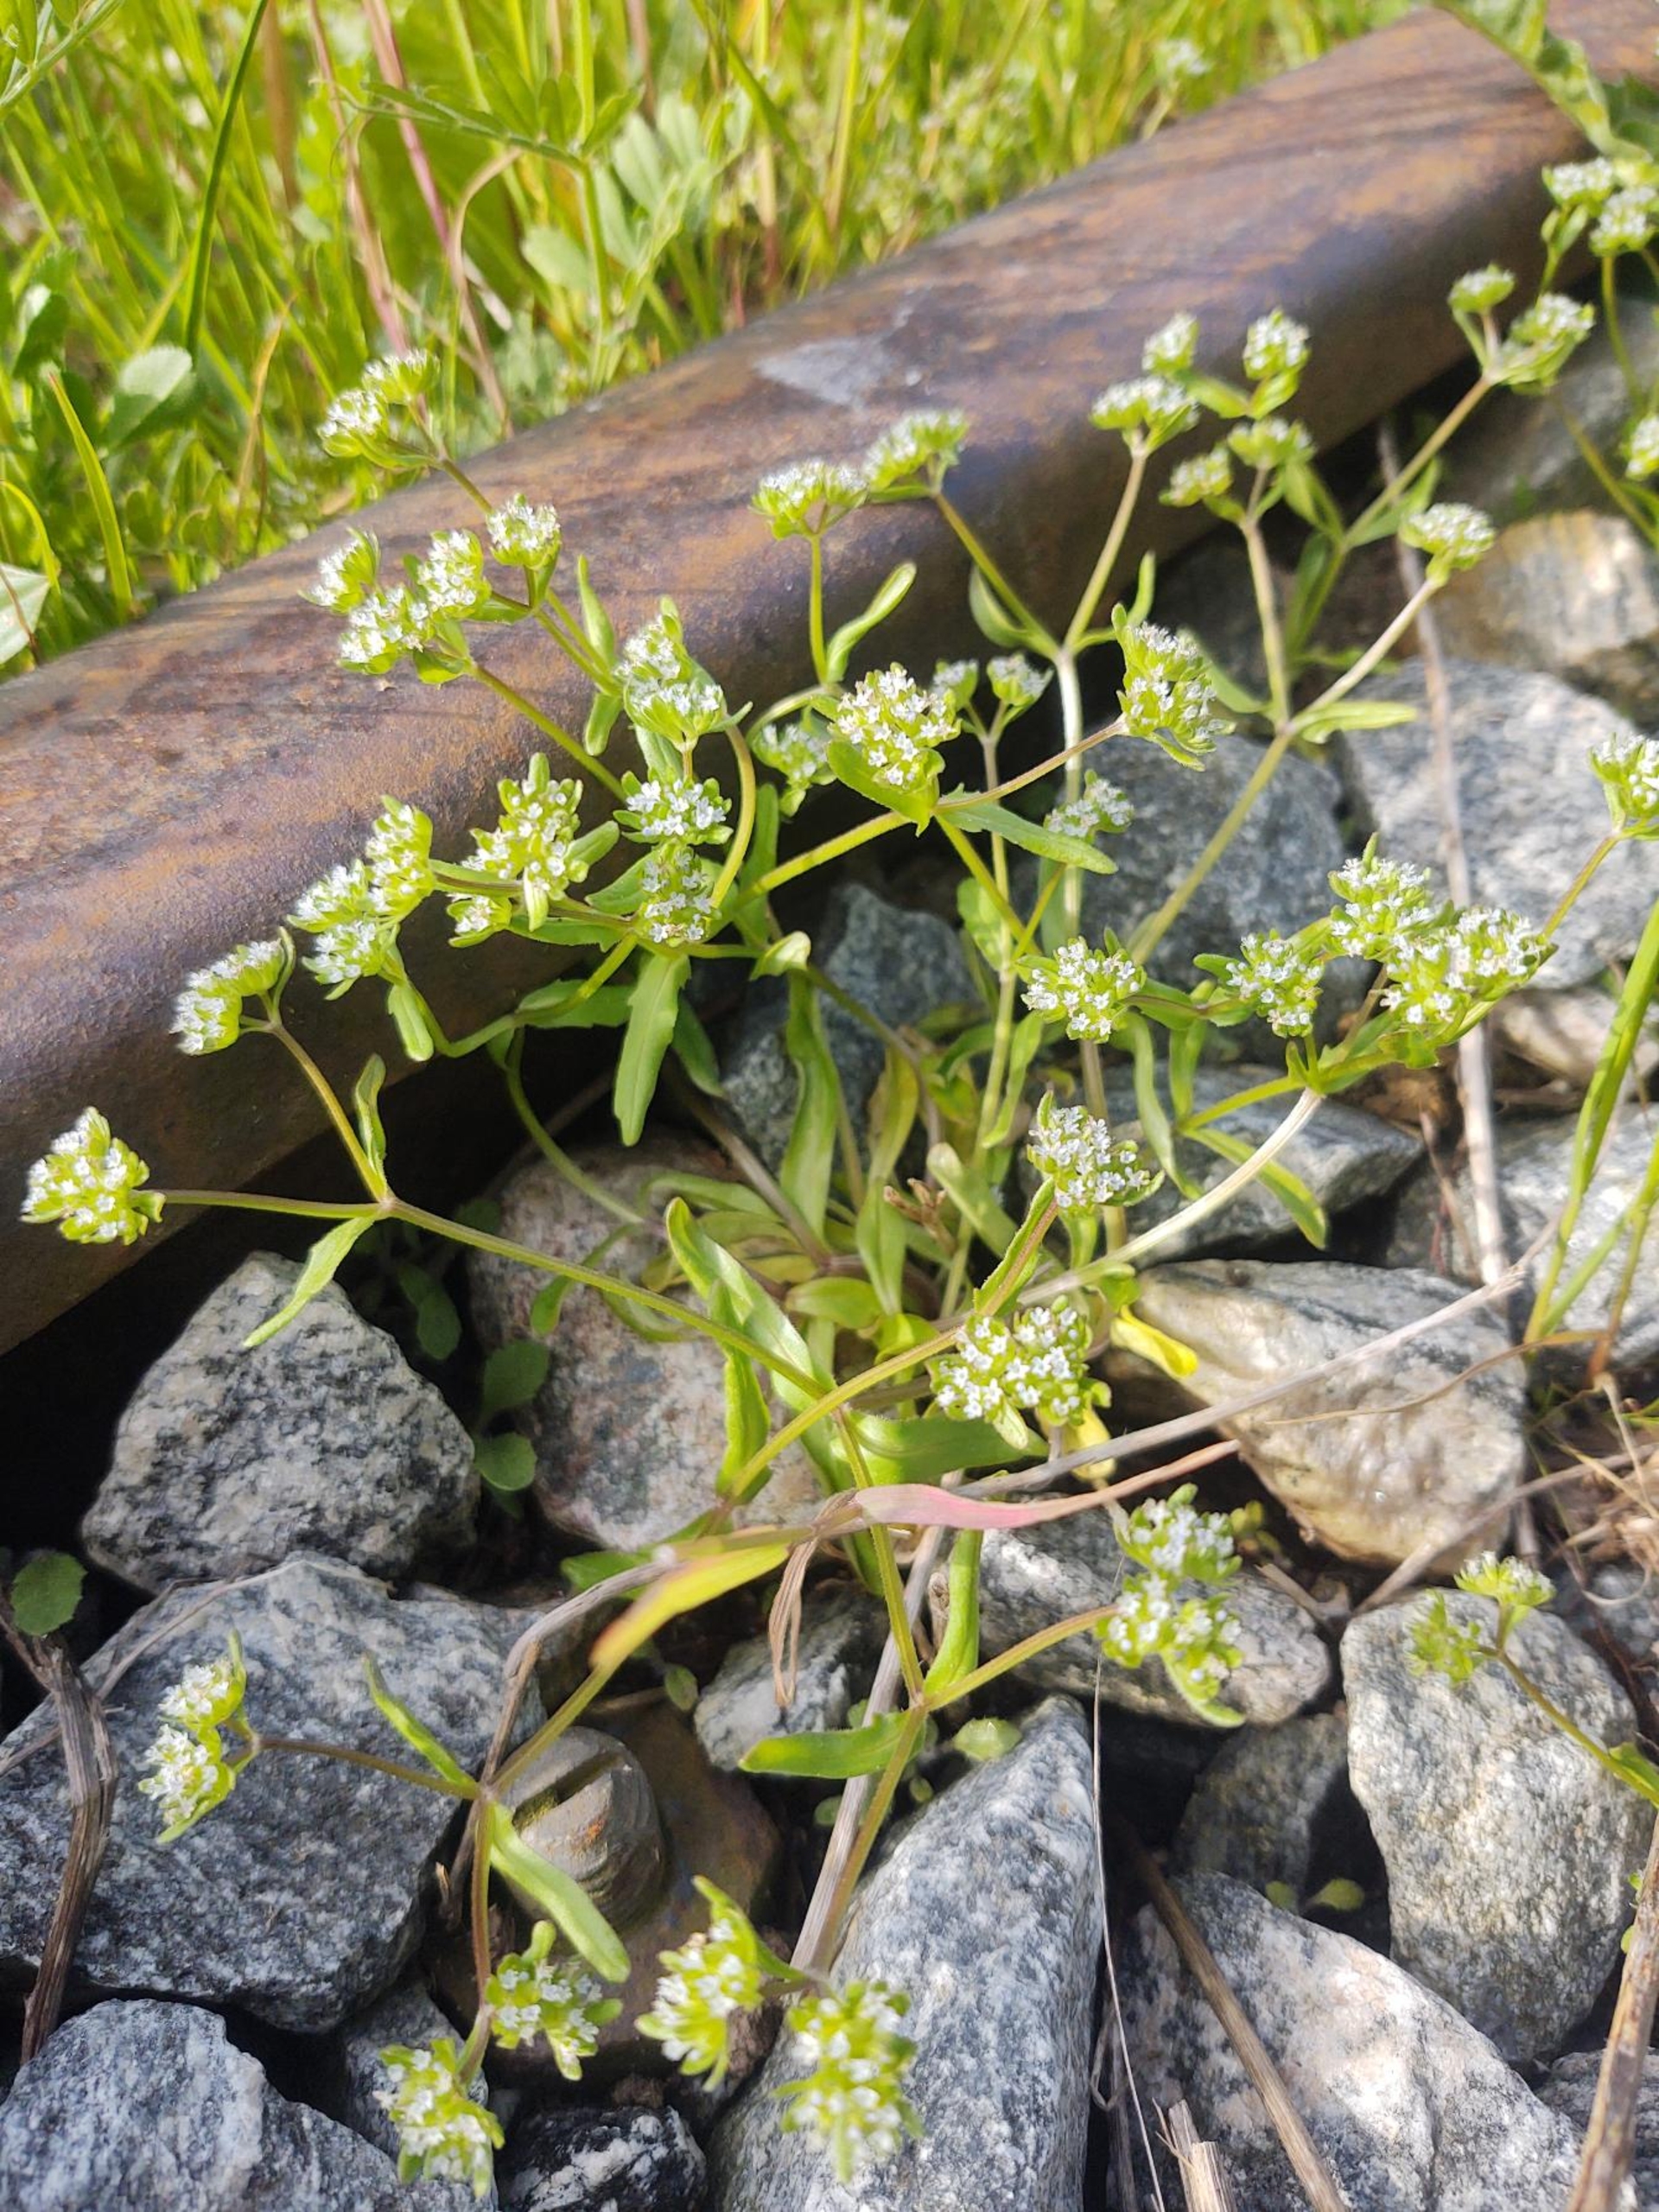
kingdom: Plantae
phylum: Tracheophyta
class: Magnoliopsida
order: Dipsacales
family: Caprifoliaceae
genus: Valerianella
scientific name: Valerianella locusta
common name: Tandfri vårsalat
